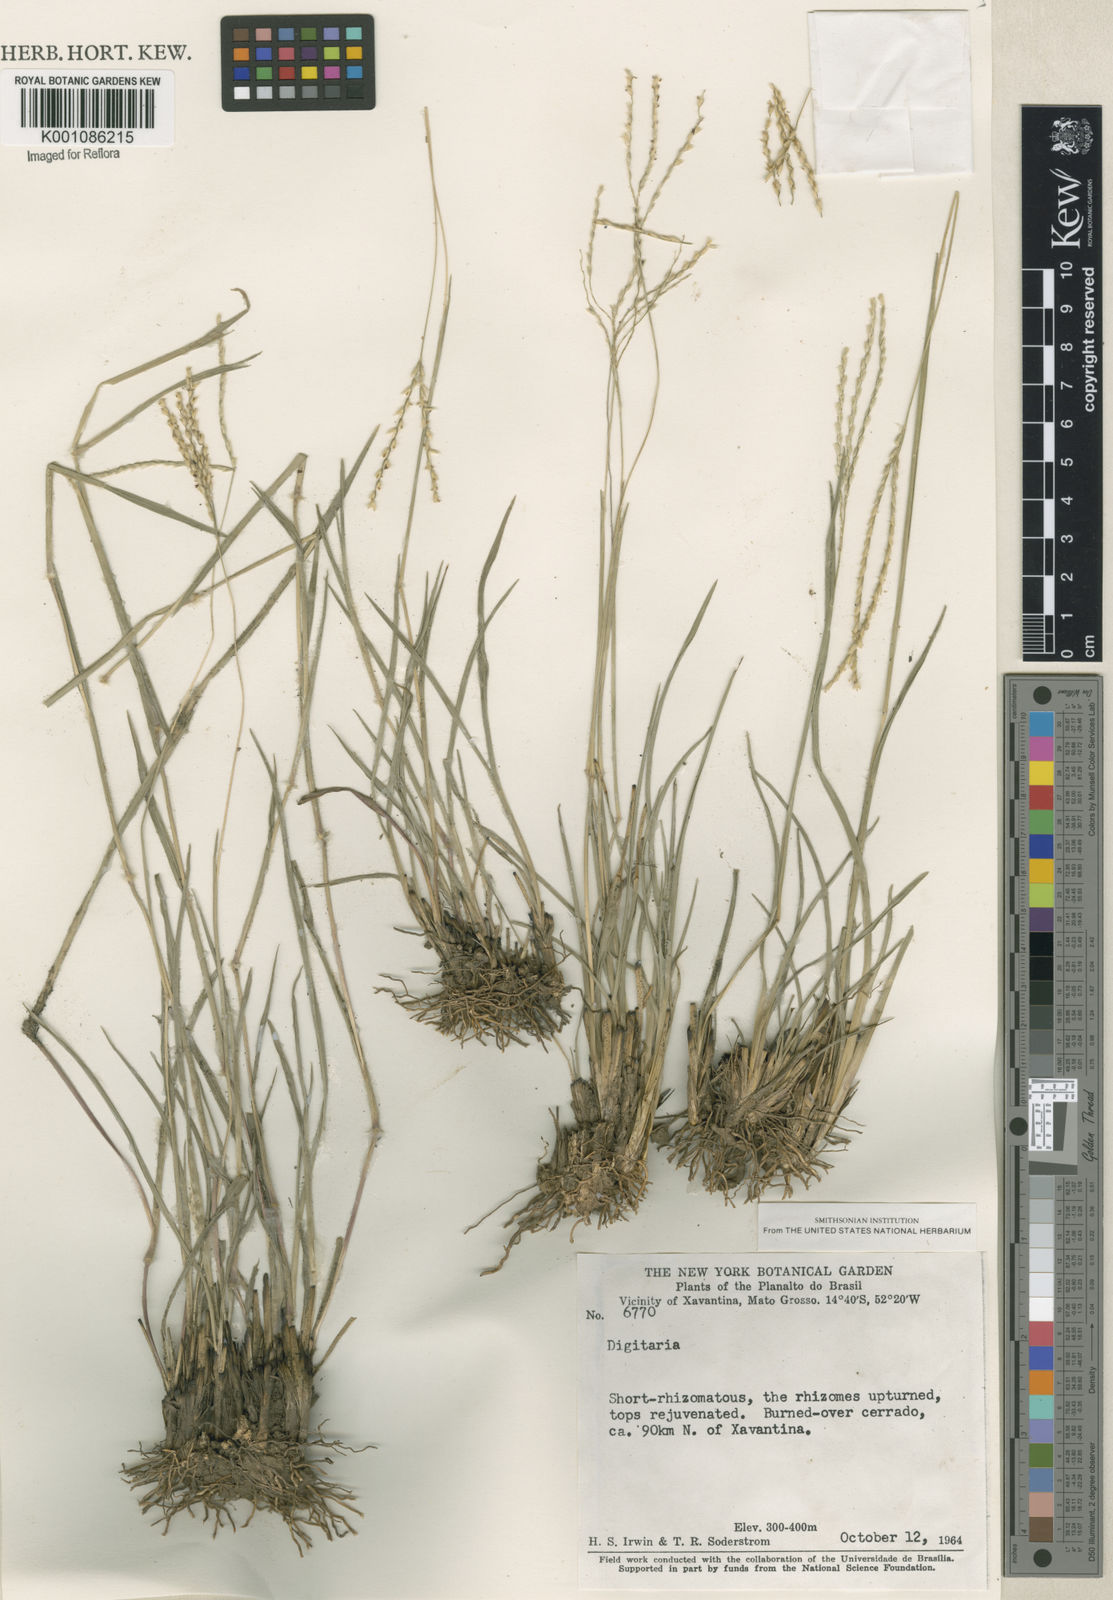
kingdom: Plantae
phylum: Tracheophyta
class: Liliopsida
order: Poales
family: Poaceae
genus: Axonopus
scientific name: Axonopus
